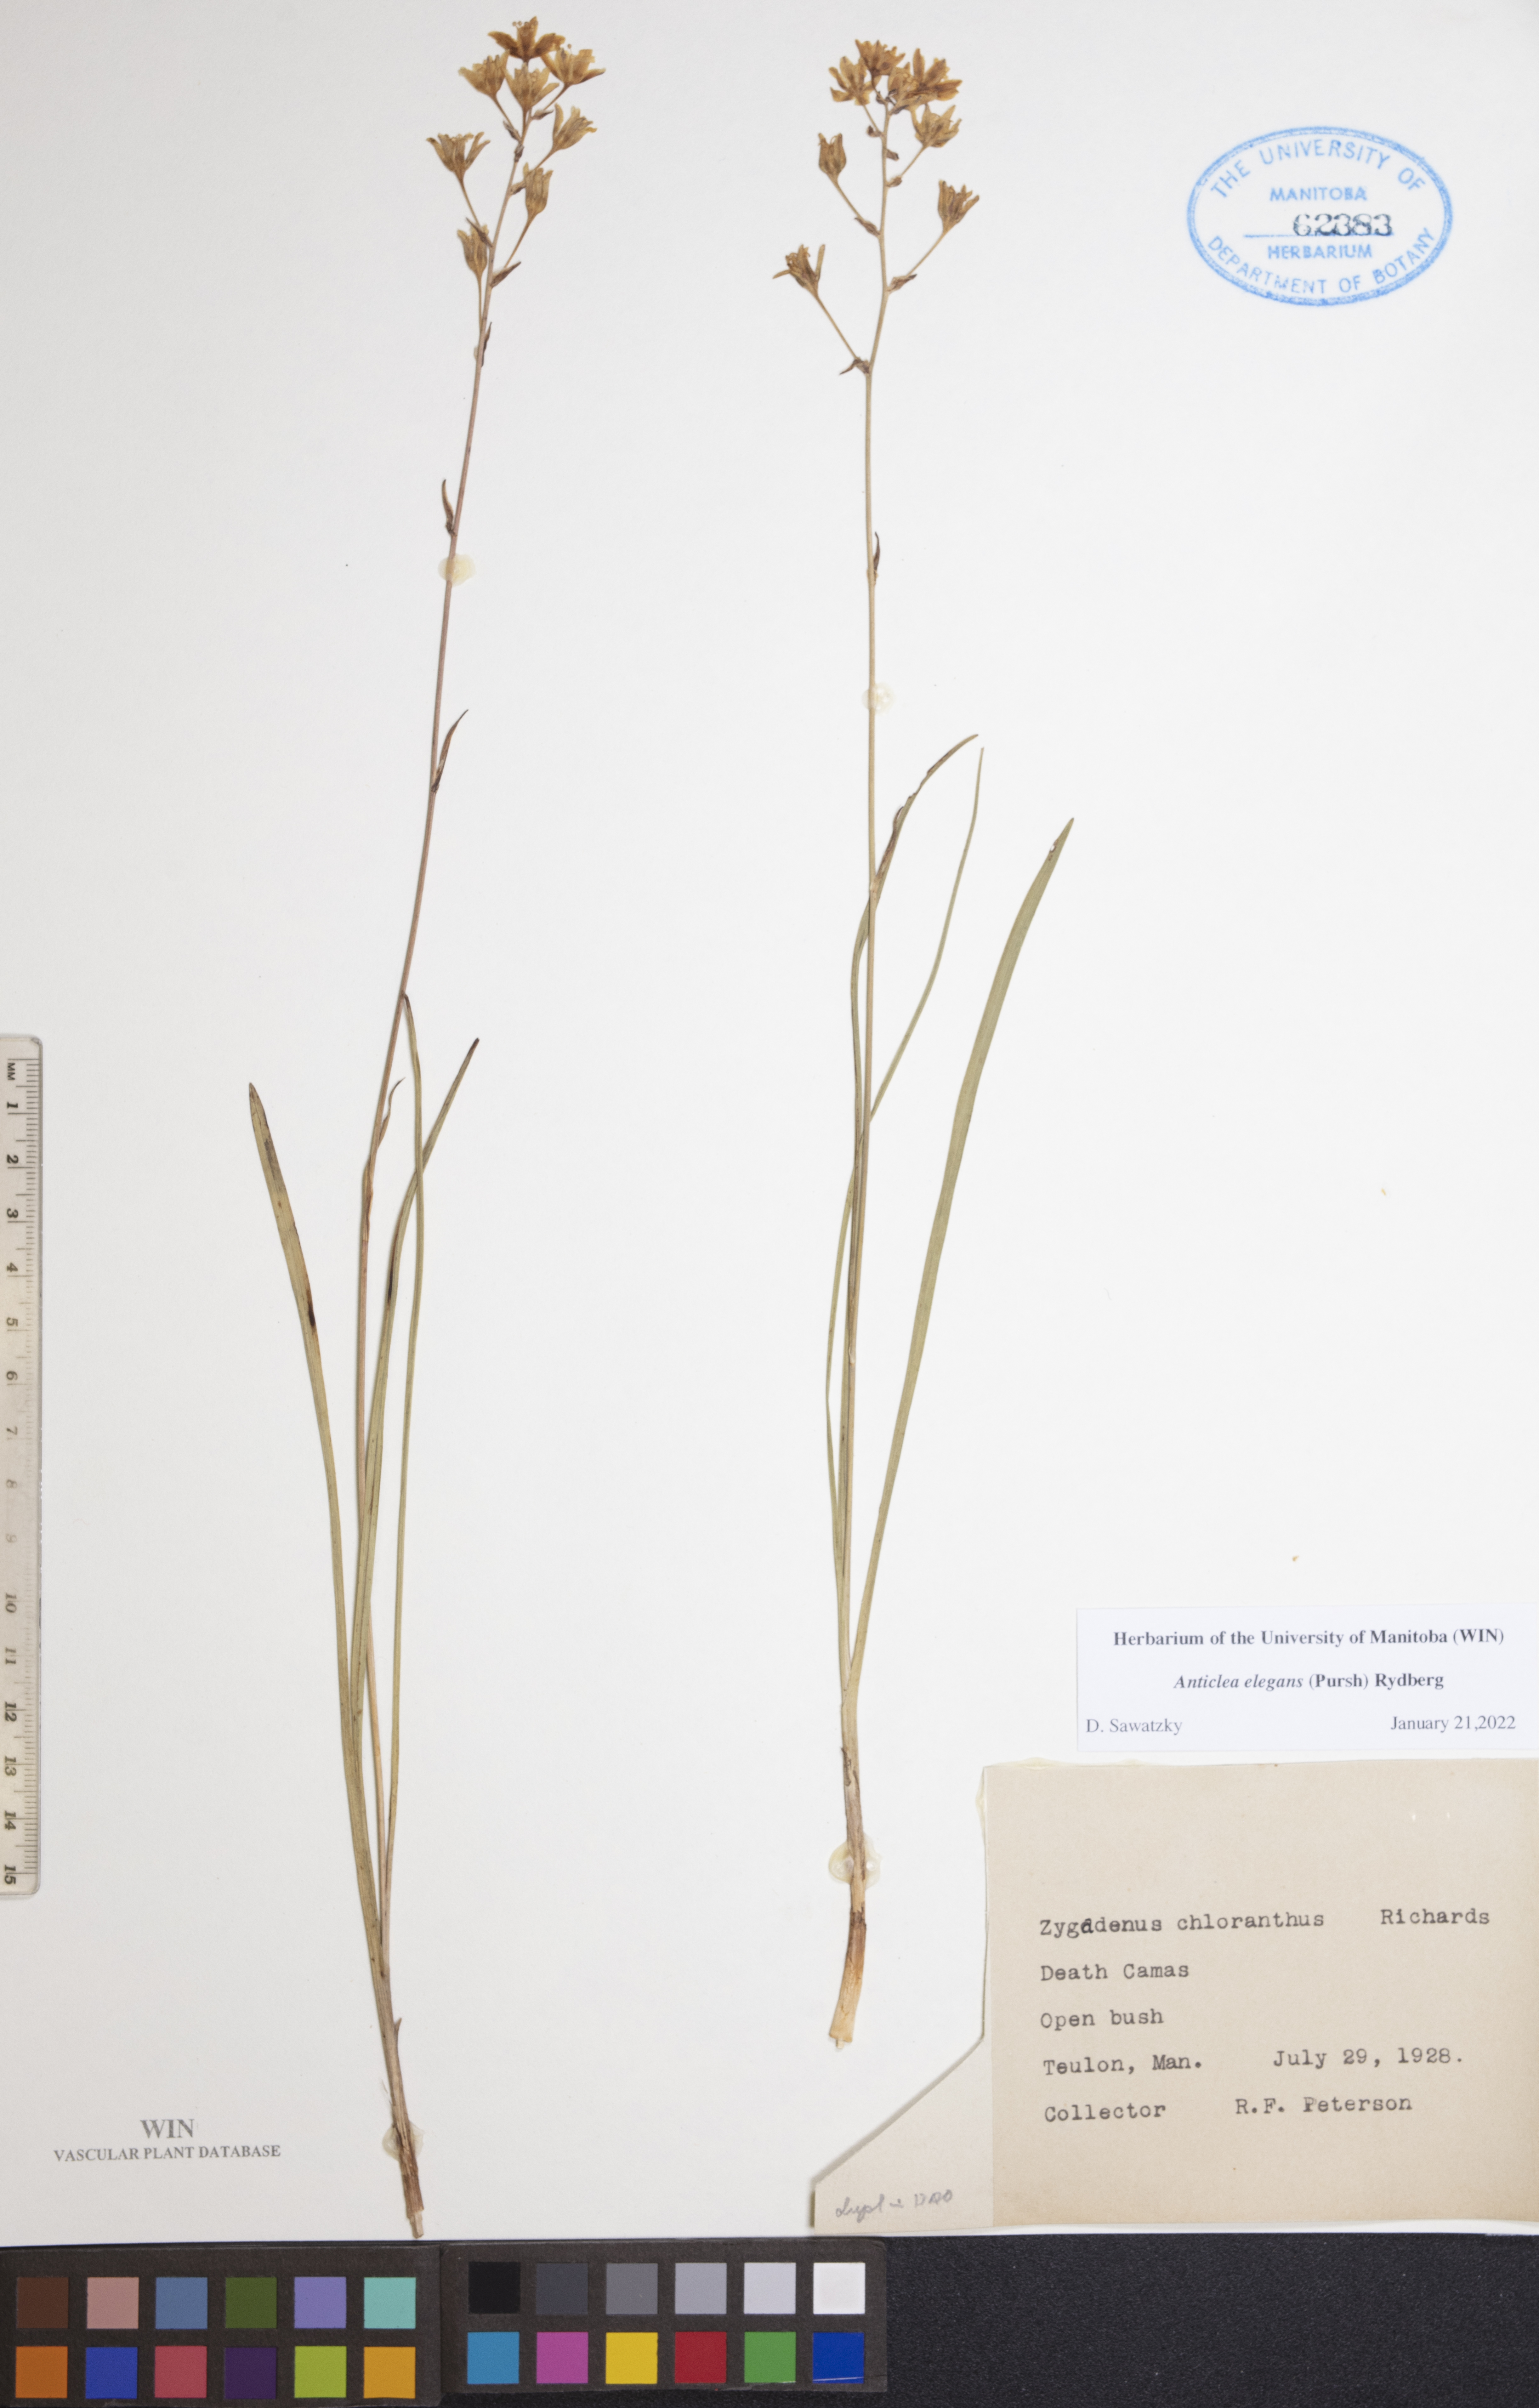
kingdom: Plantae
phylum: Tracheophyta
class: Liliopsida
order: Liliales
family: Melanthiaceae
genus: Anticlea
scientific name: Anticlea elegans
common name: Mountain death camas
